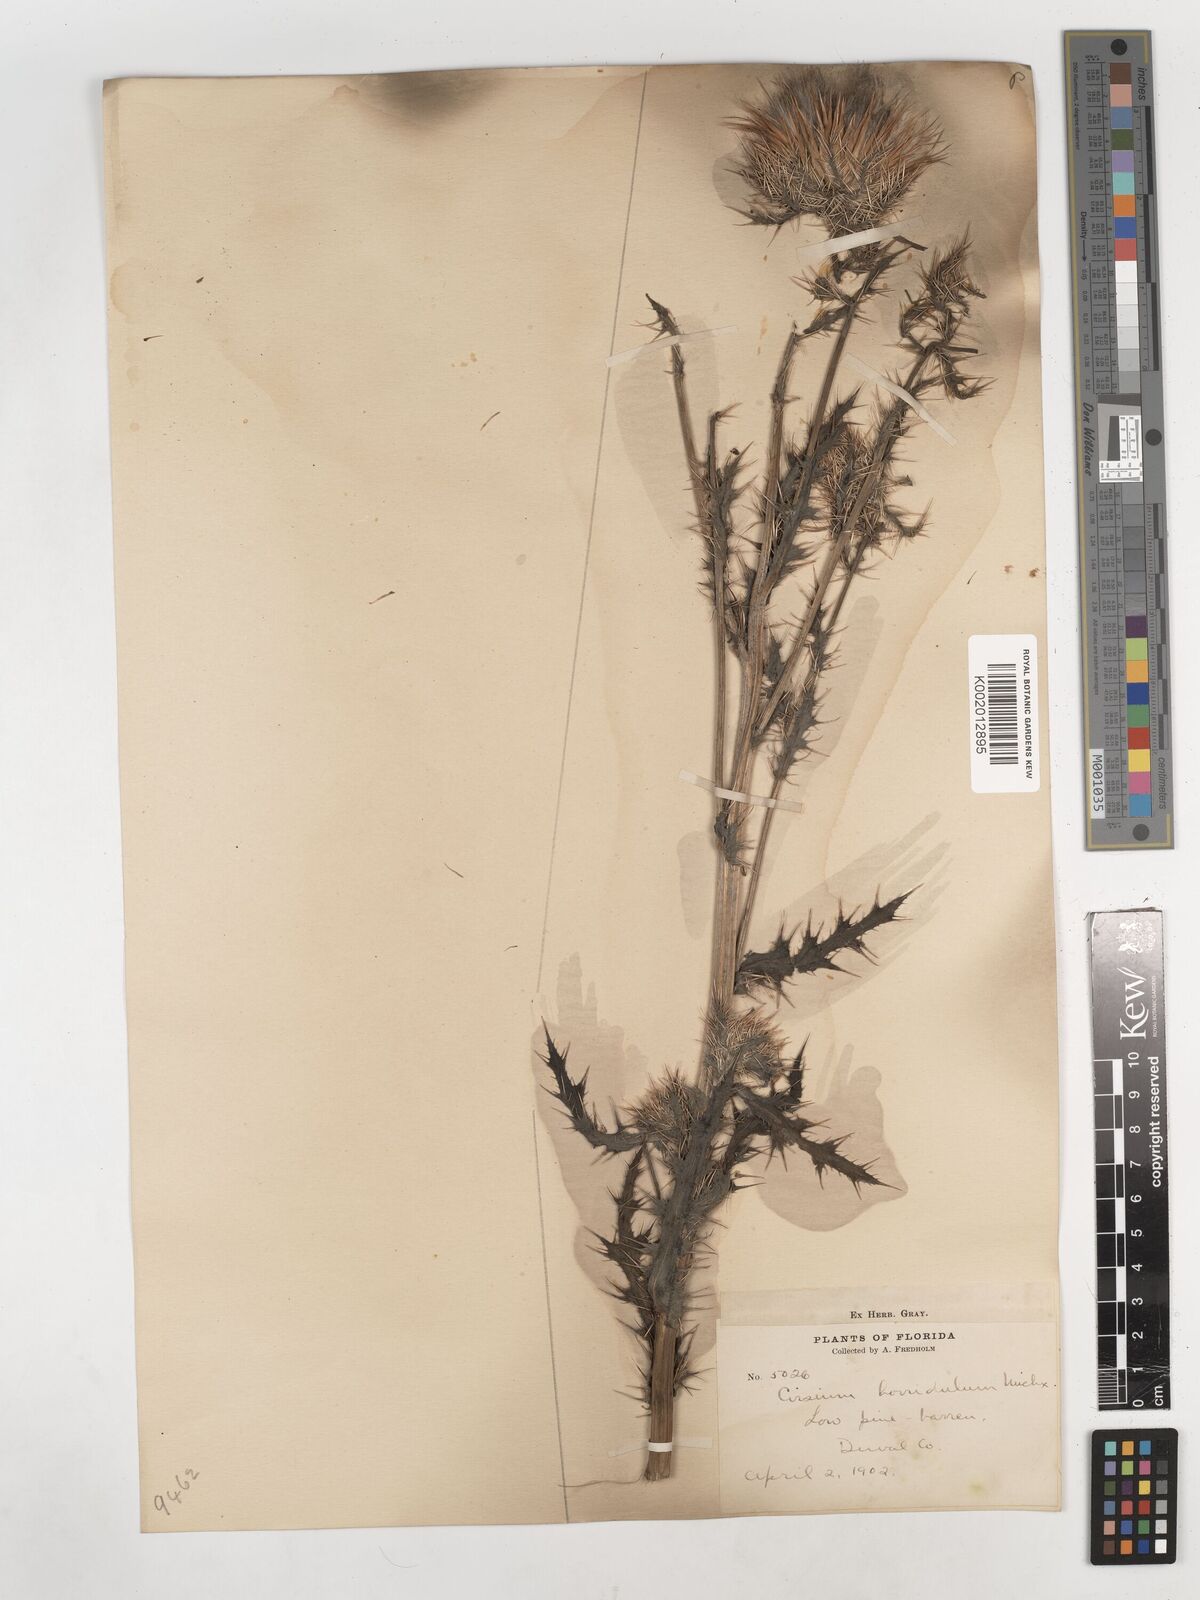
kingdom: Plantae
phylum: Tracheophyta
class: Magnoliopsida
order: Asterales
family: Asteraceae
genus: Cirsium
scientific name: Cirsium horridulum
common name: Bristly thistle
